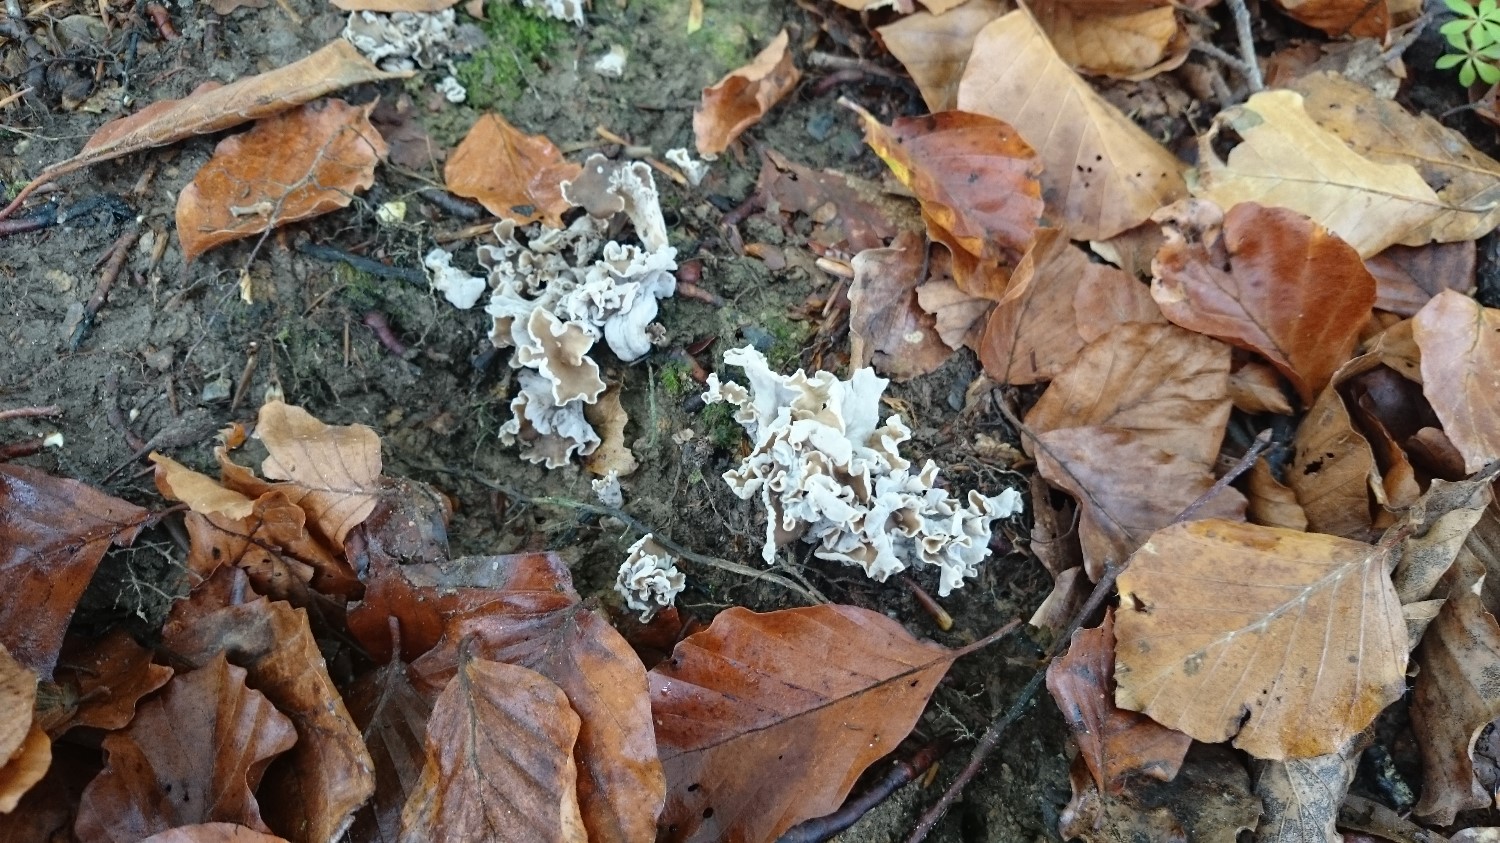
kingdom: Fungi
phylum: Basidiomycota
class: Agaricomycetes
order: Cantharellales
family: Hydnaceae
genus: Craterellus
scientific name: Craterellus undulatus
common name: liden kantarel
